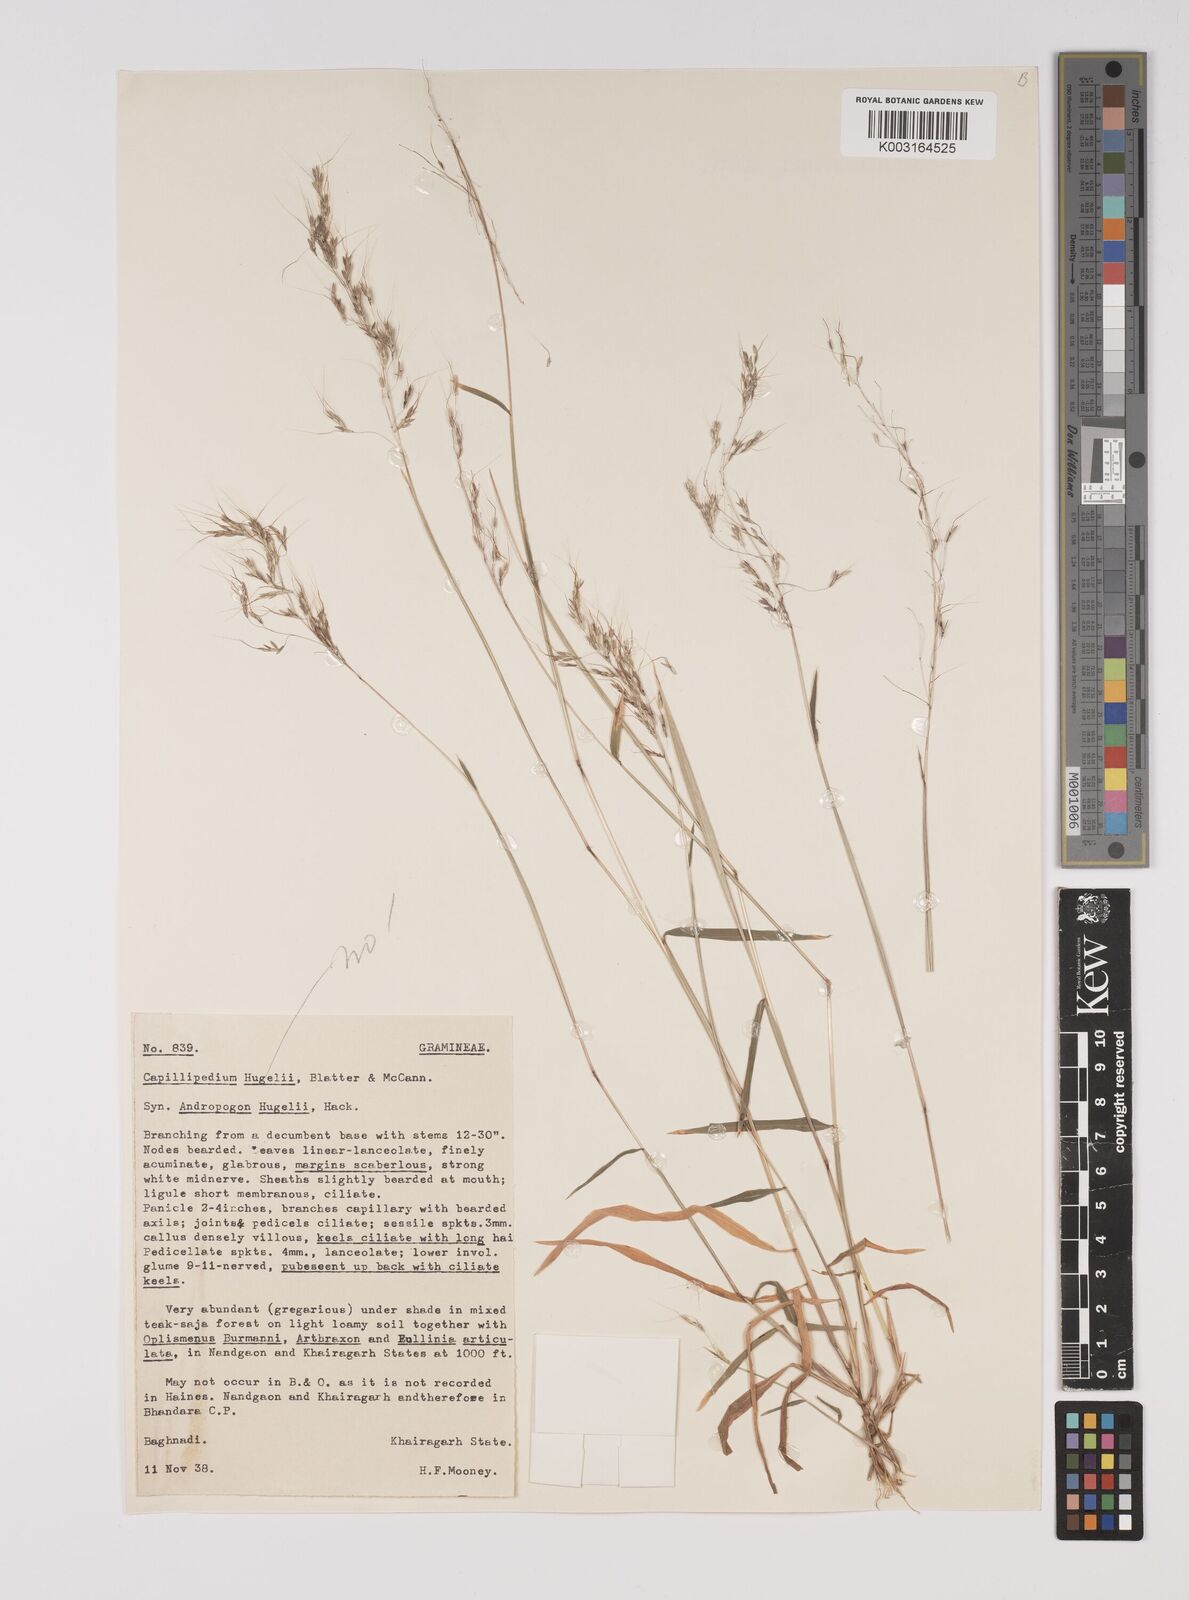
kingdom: Plantae
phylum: Tracheophyta
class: Liliopsida
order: Poales
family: Poaceae
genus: Capillipedium
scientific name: Capillipedium huegelii
